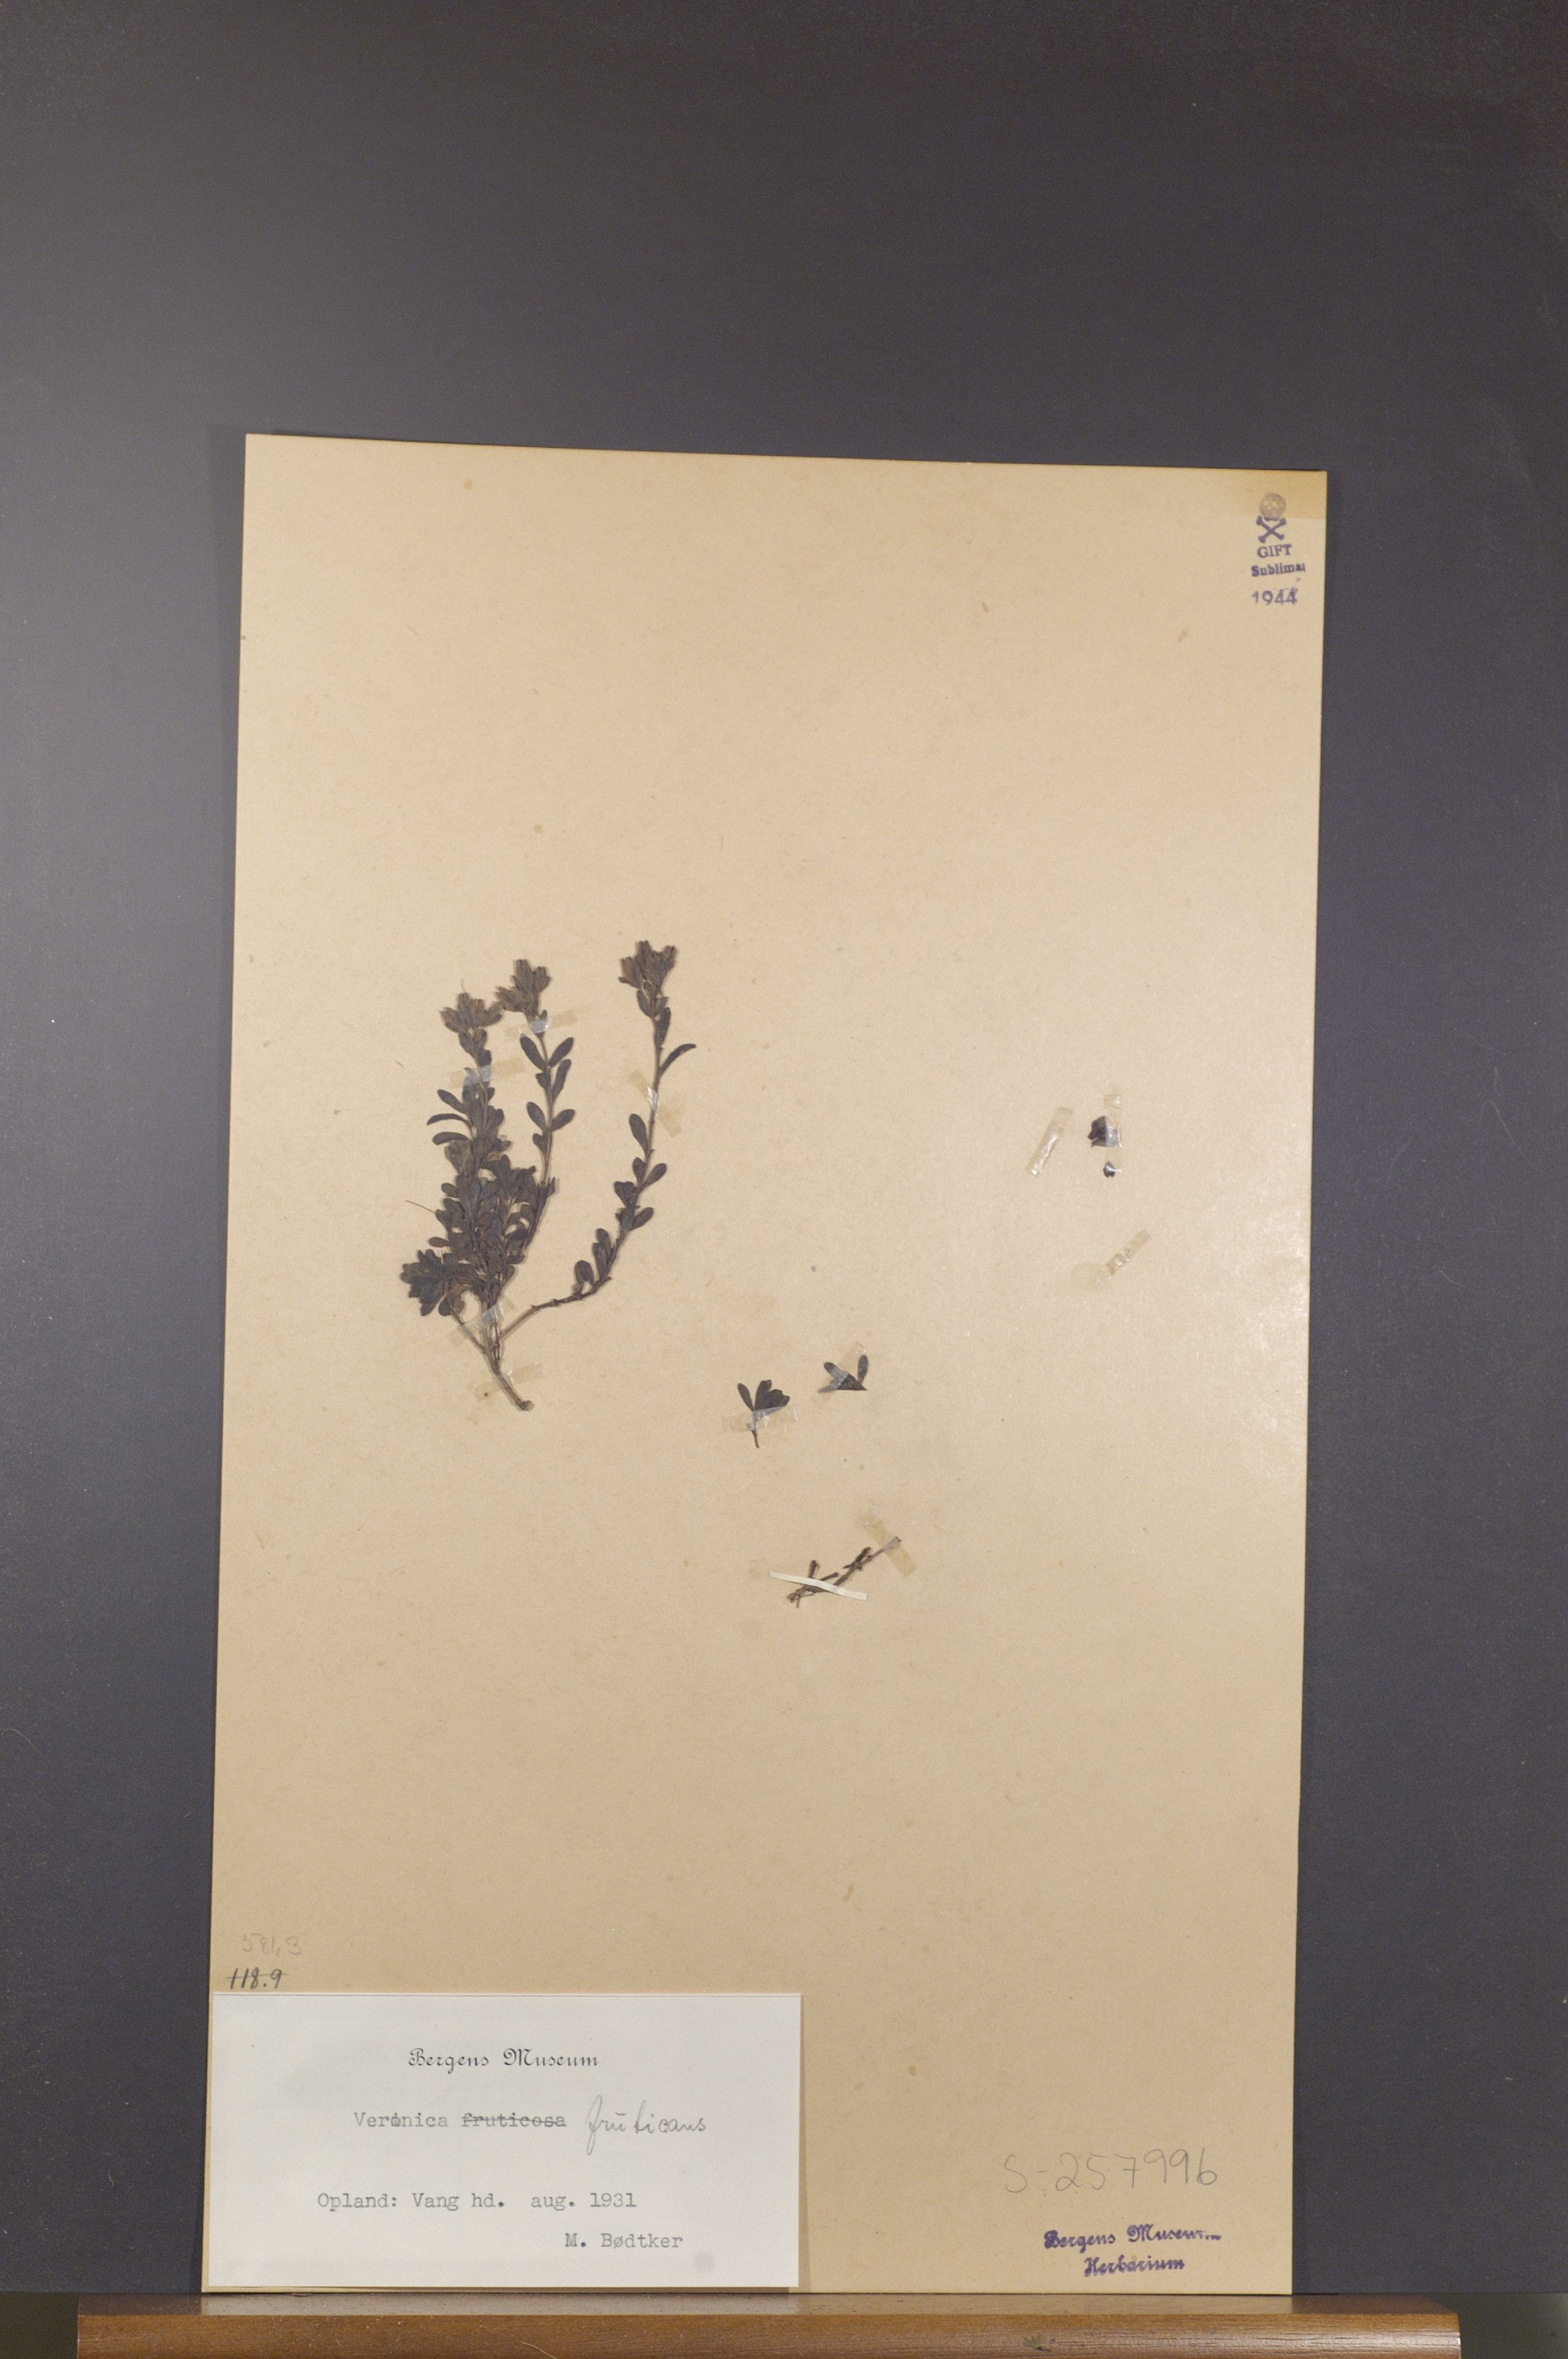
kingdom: Plantae
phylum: Tracheophyta
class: Magnoliopsida
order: Lamiales
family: Plantaginaceae
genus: Veronica
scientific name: Veronica fruticans
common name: Rock speedwell
